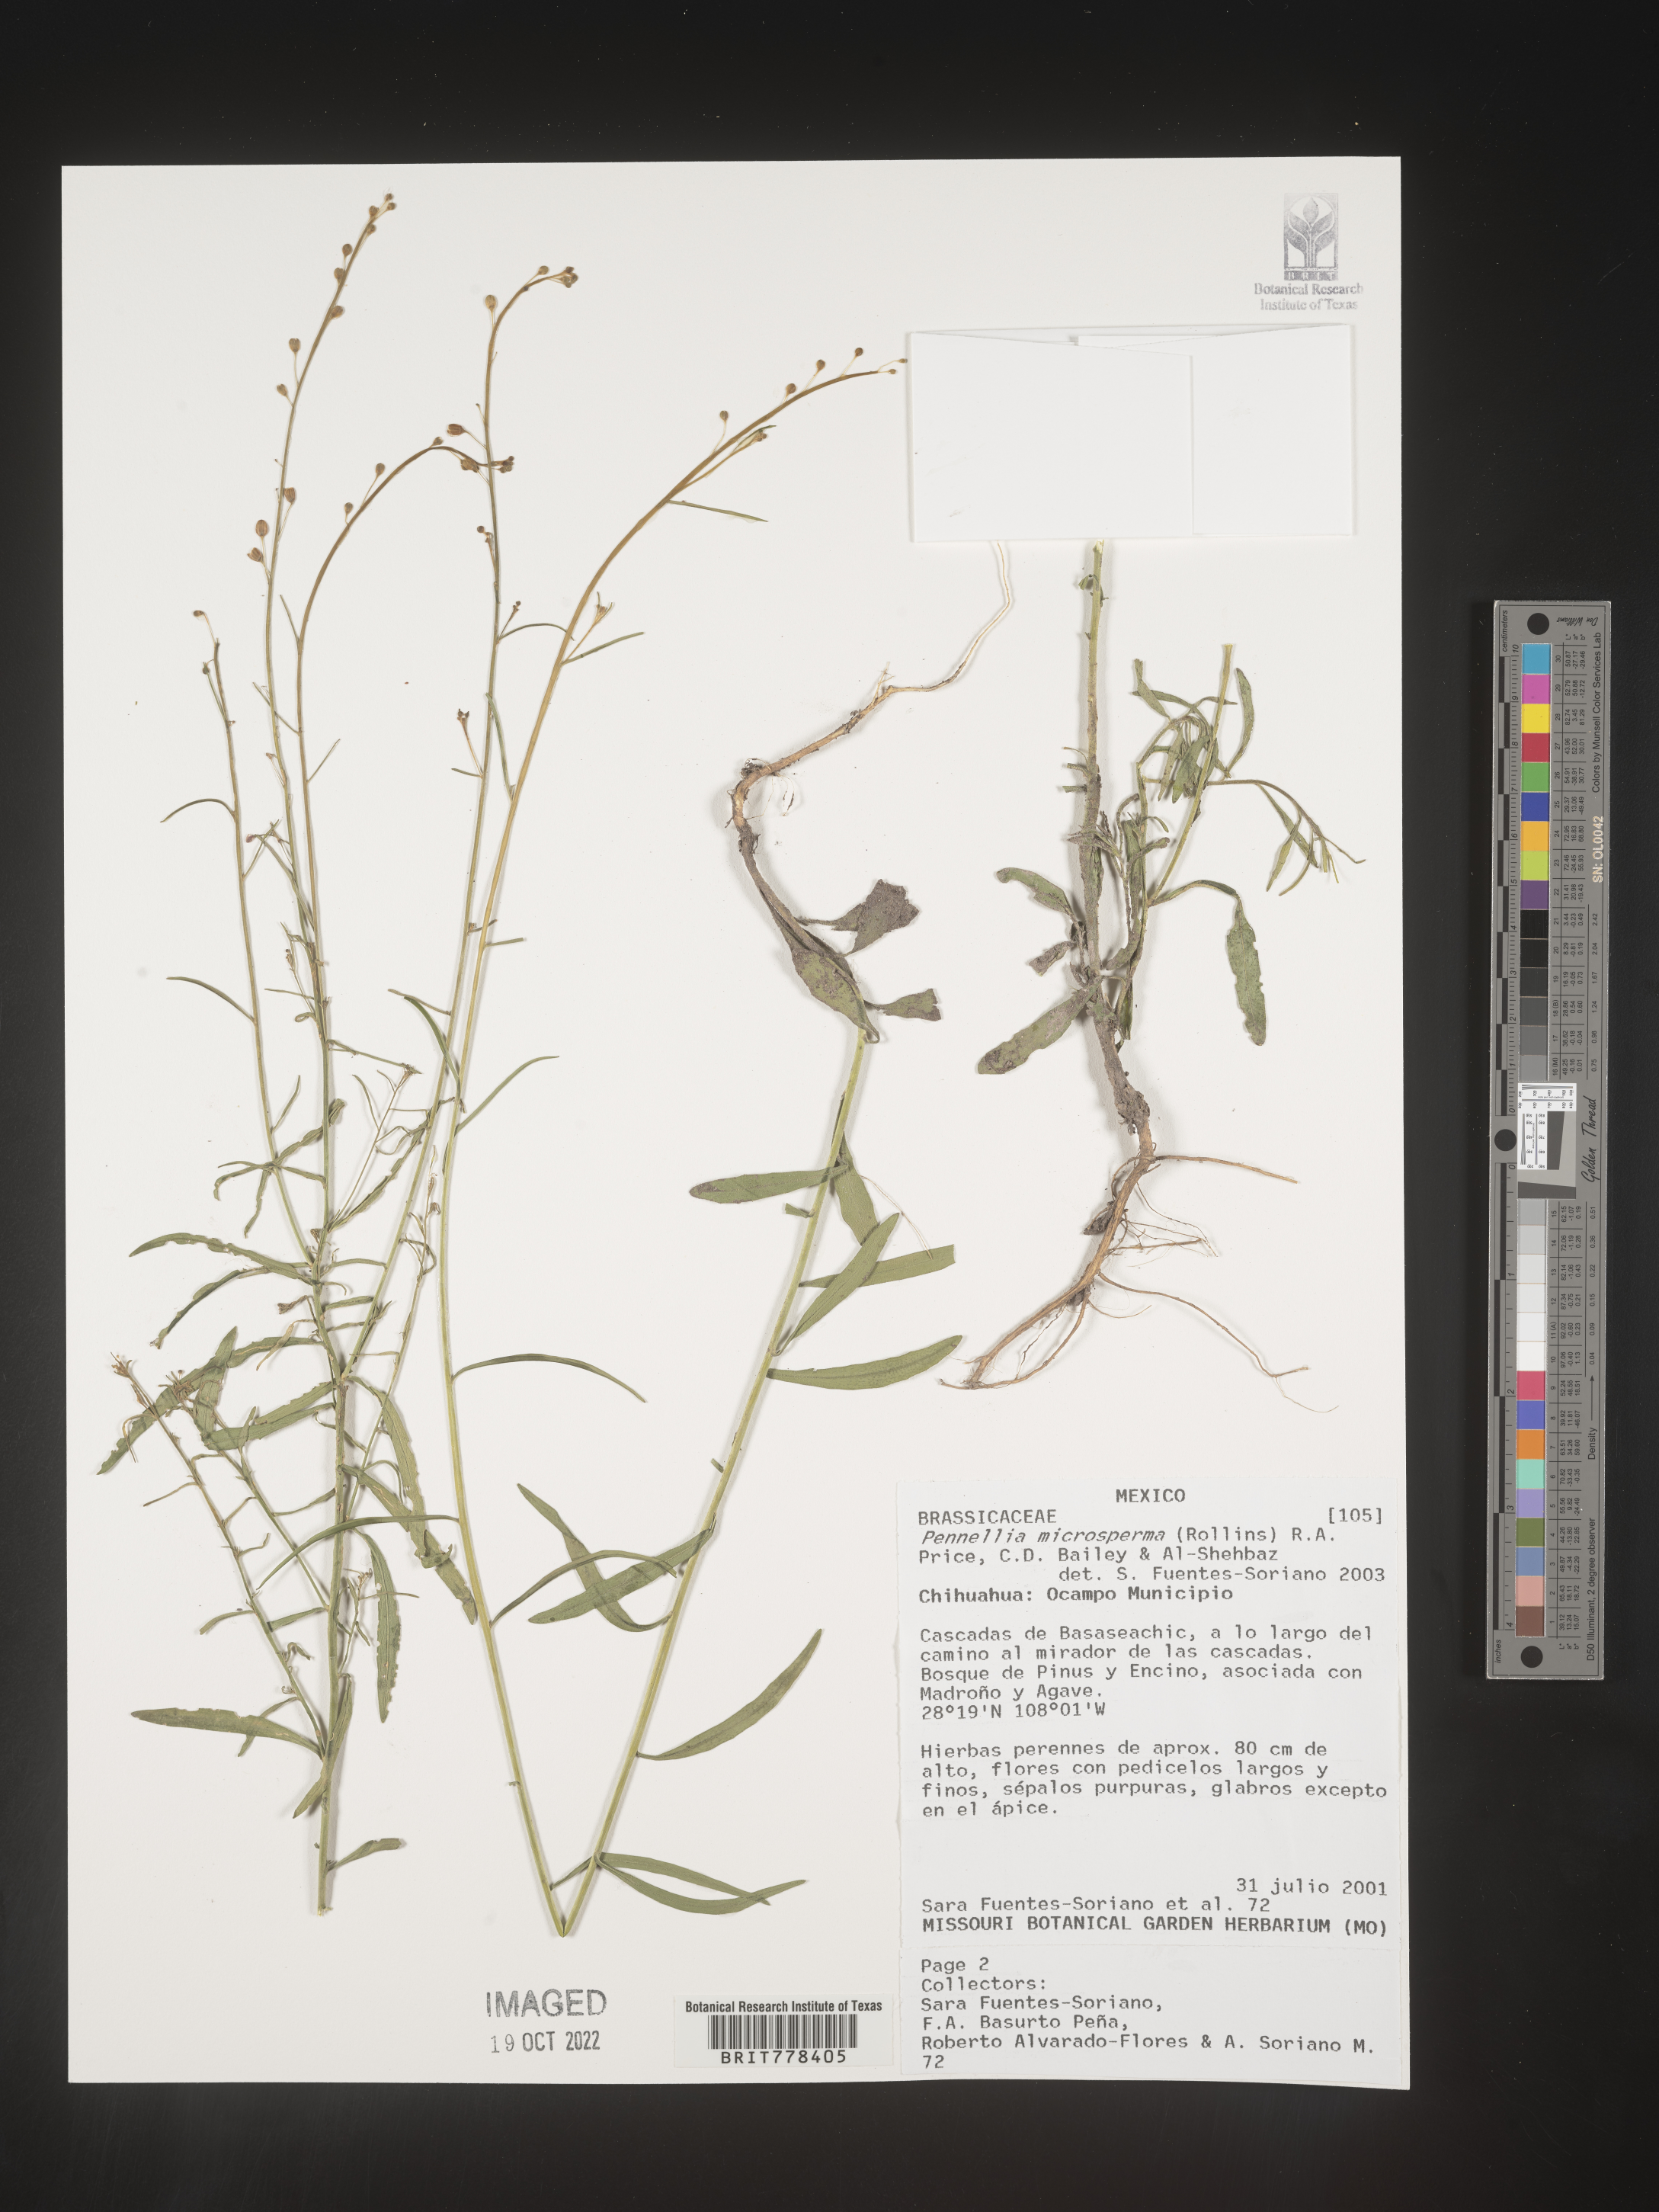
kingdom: Plantae
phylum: Tracheophyta
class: Magnoliopsida
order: Brassicales
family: Brassicaceae
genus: Pennellia
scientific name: Pennellia
